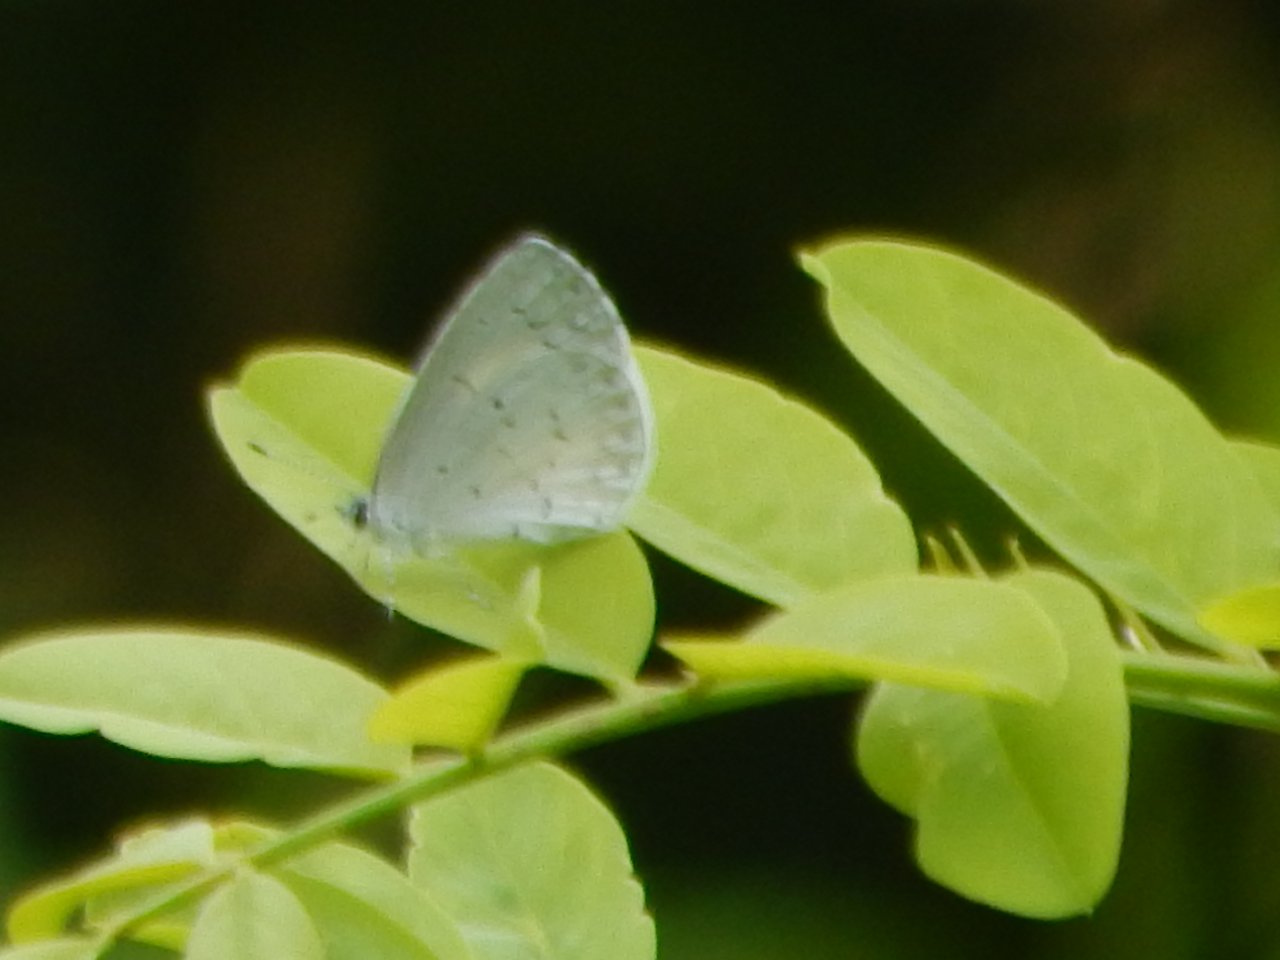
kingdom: Animalia
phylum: Arthropoda
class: Insecta
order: Lepidoptera
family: Lycaenidae
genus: Celastrina
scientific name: Celastrina
